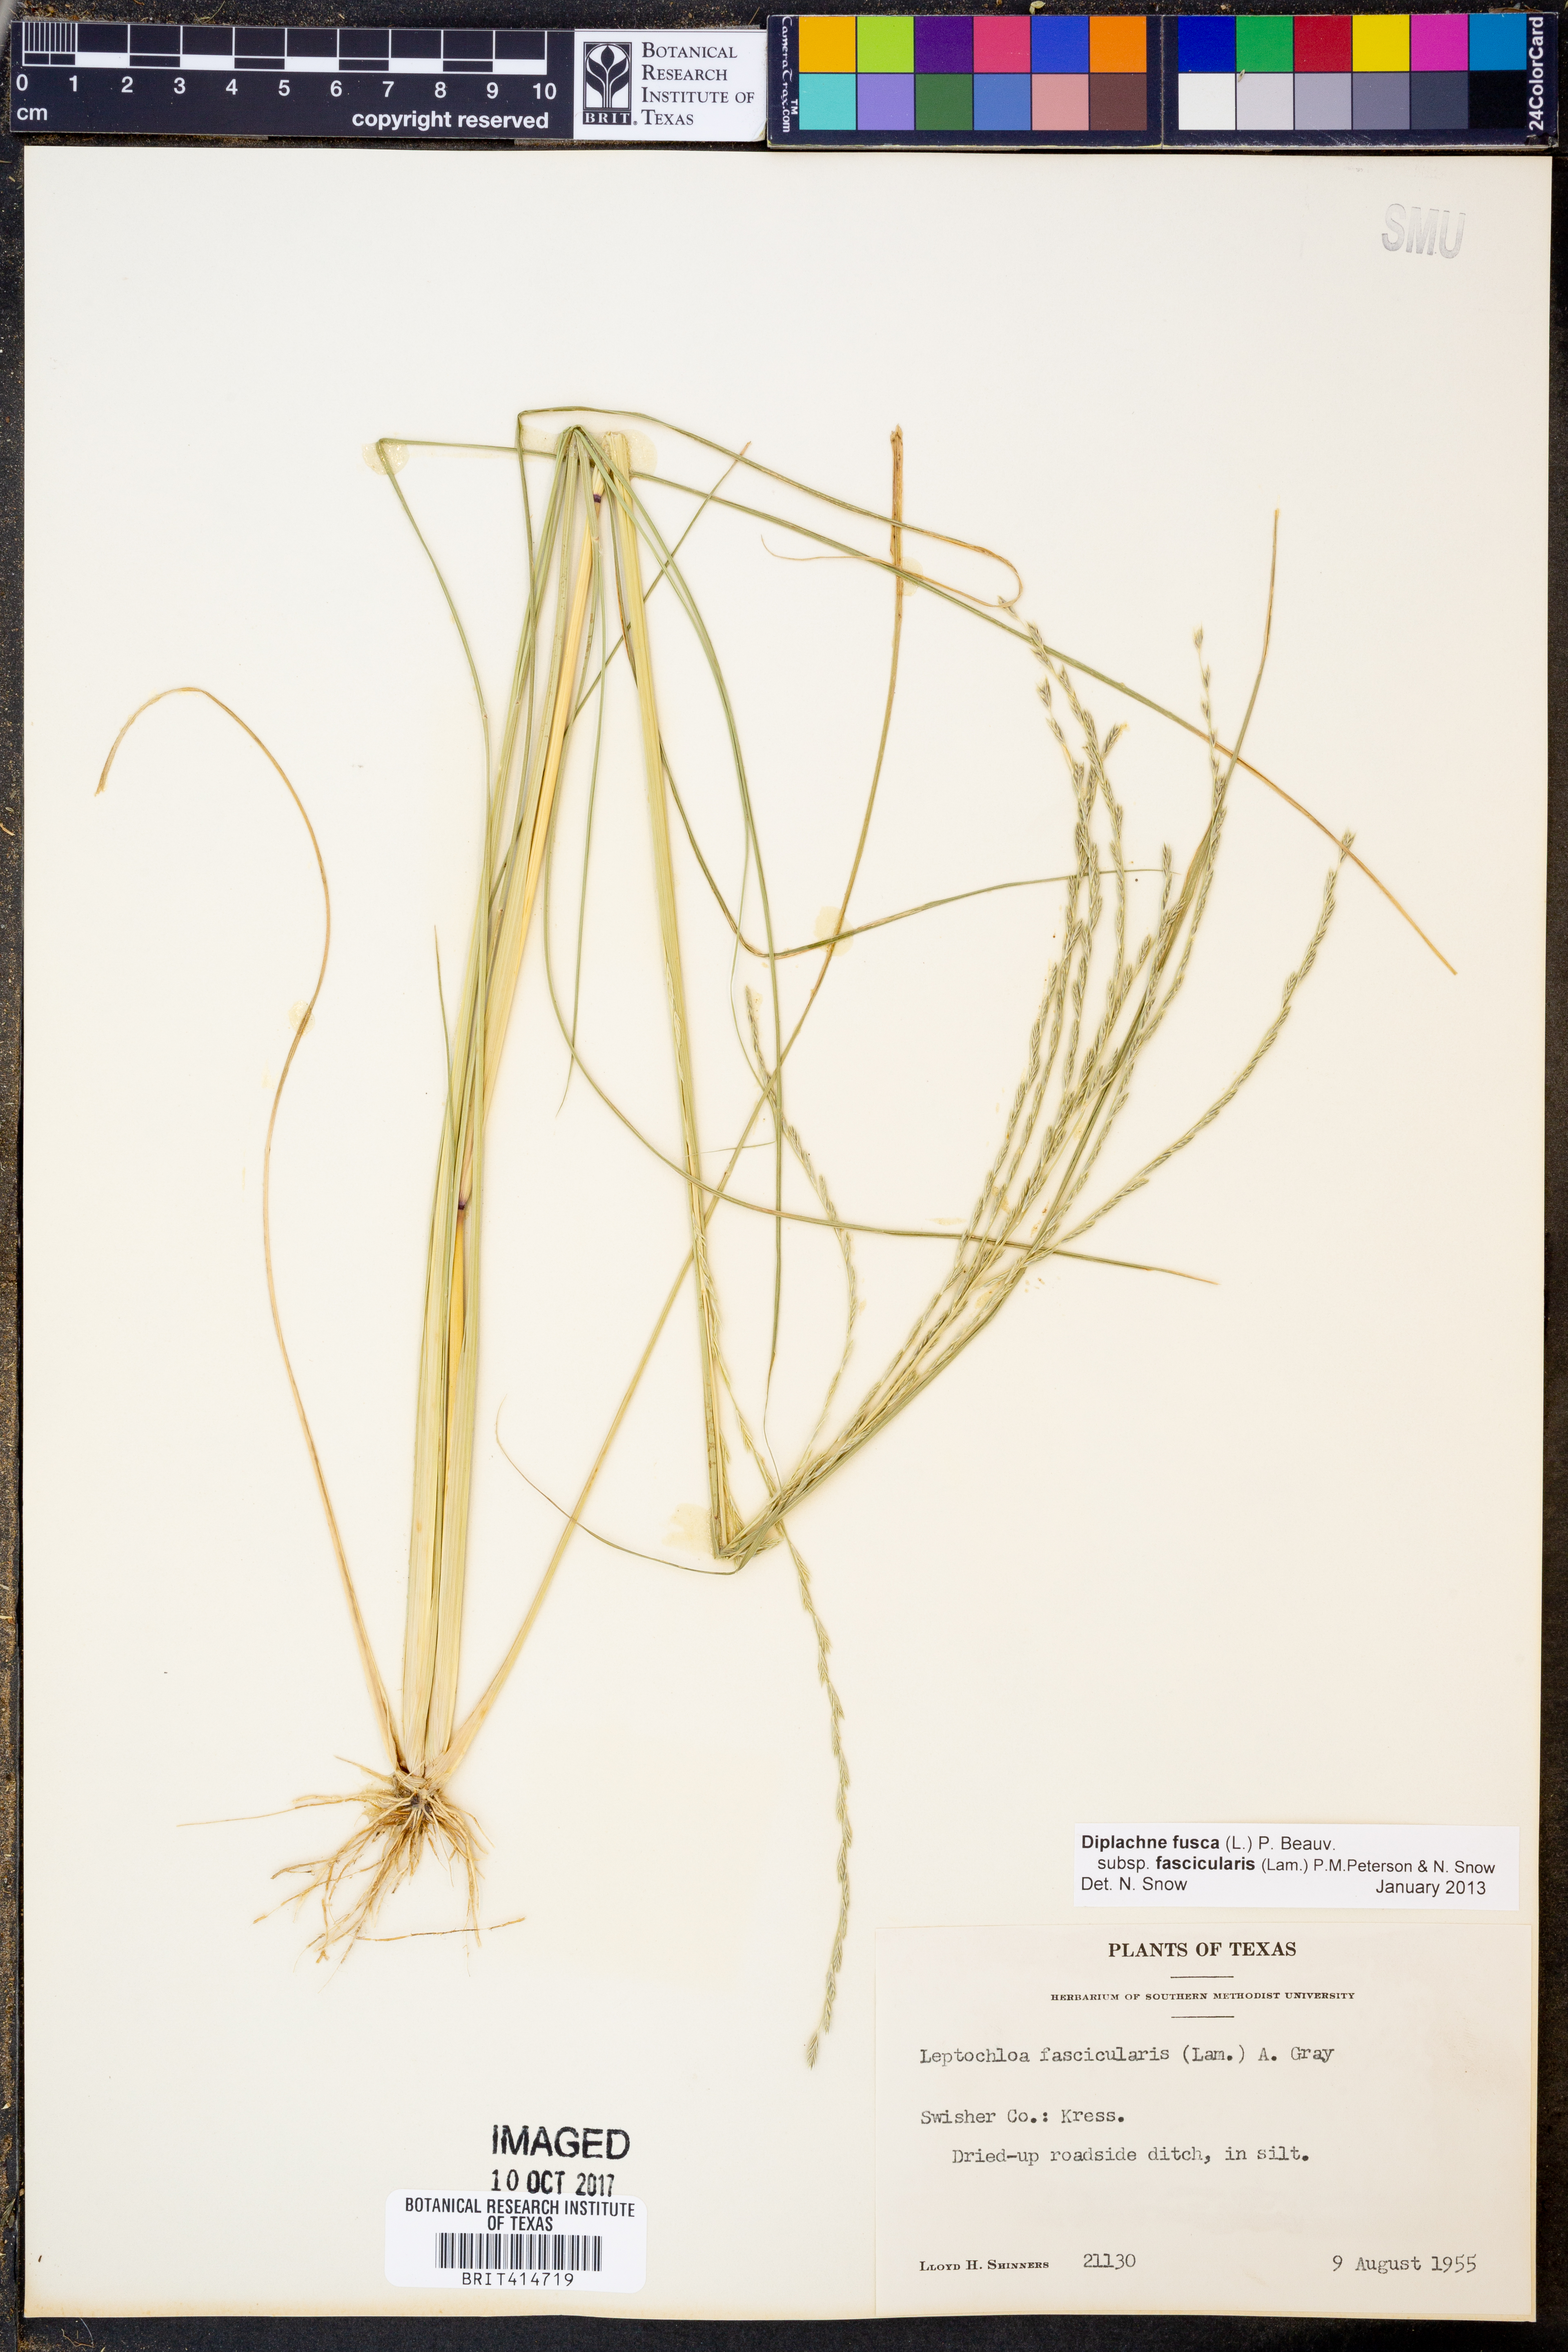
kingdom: Plantae
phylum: Tracheophyta
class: Liliopsida
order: Poales
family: Poaceae
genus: Diplachne
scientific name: Diplachne fusca
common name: Brown beetle grass
